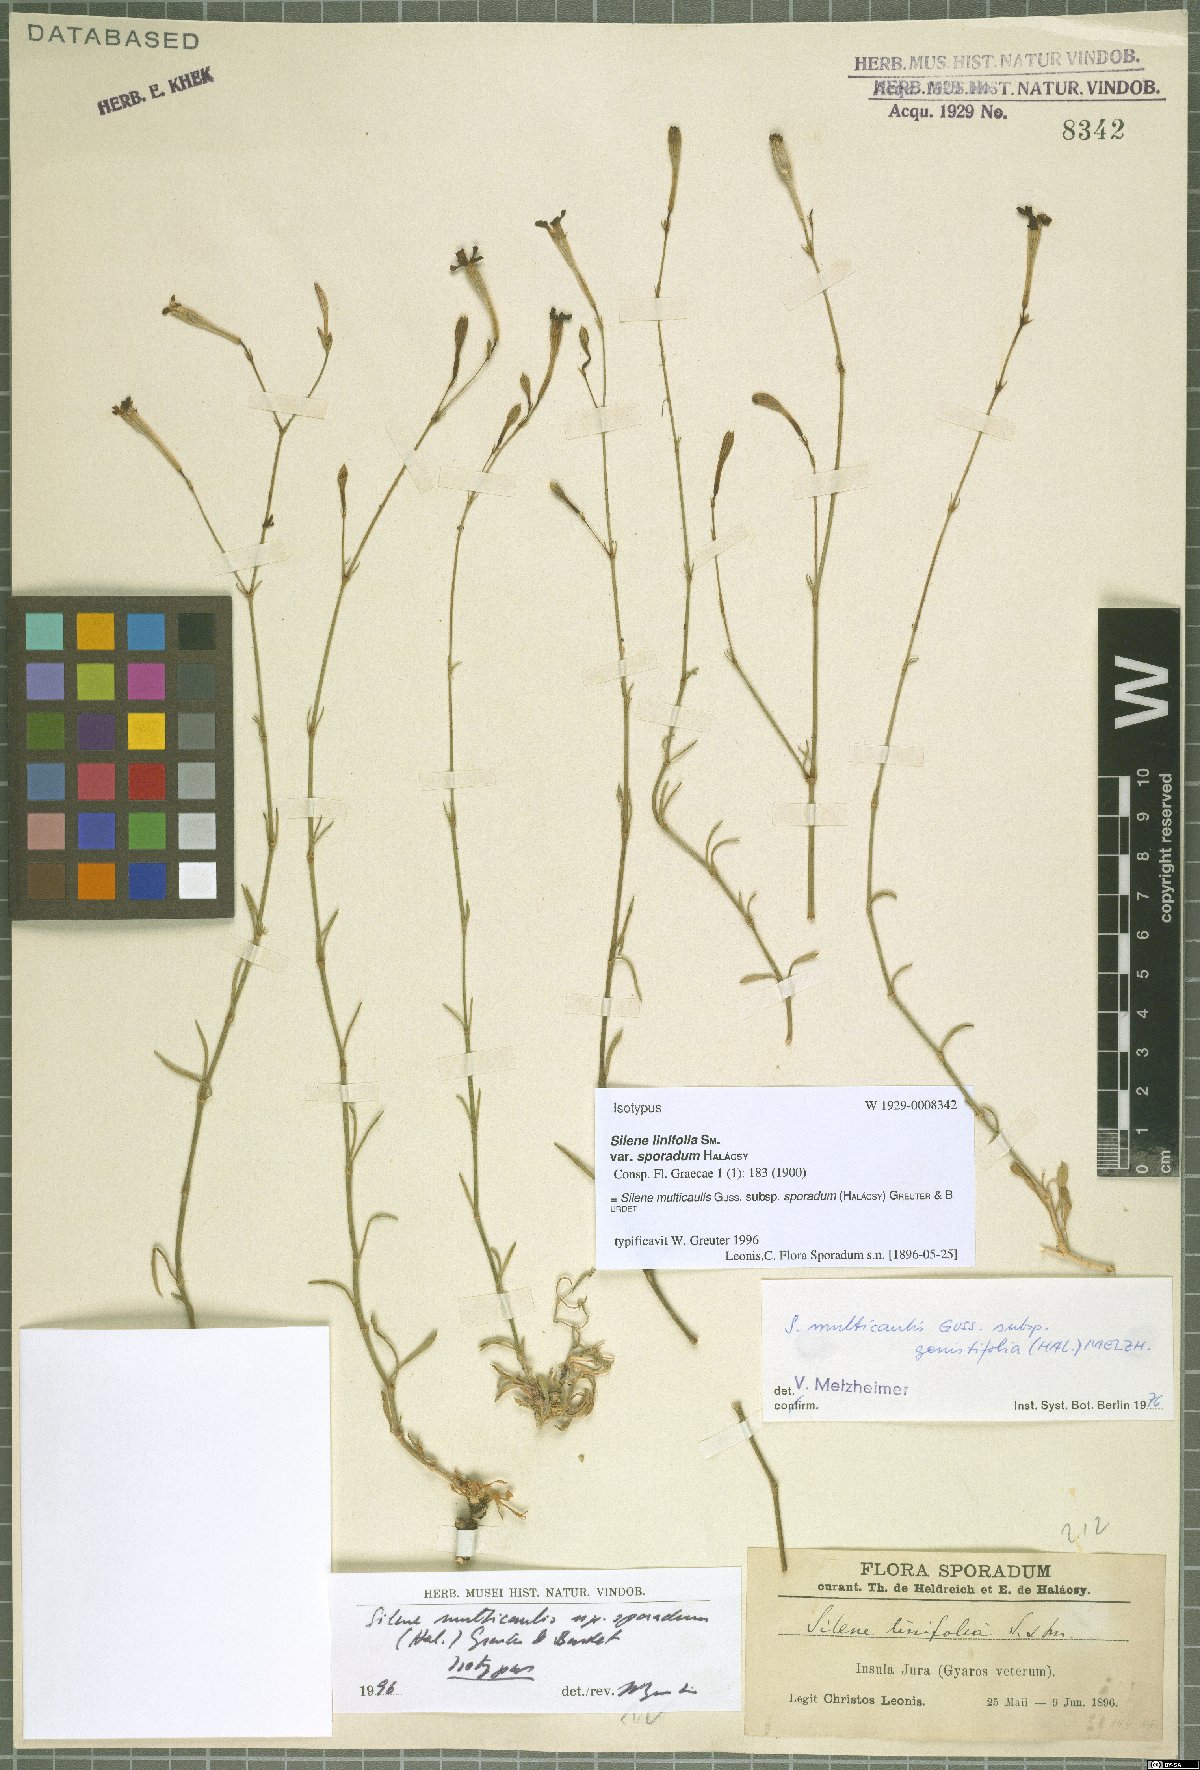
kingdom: Plantae
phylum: Tracheophyta
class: Magnoliopsida
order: Caryophyllales
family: Caryophyllaceae
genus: Silene
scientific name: Silene multicaulis
